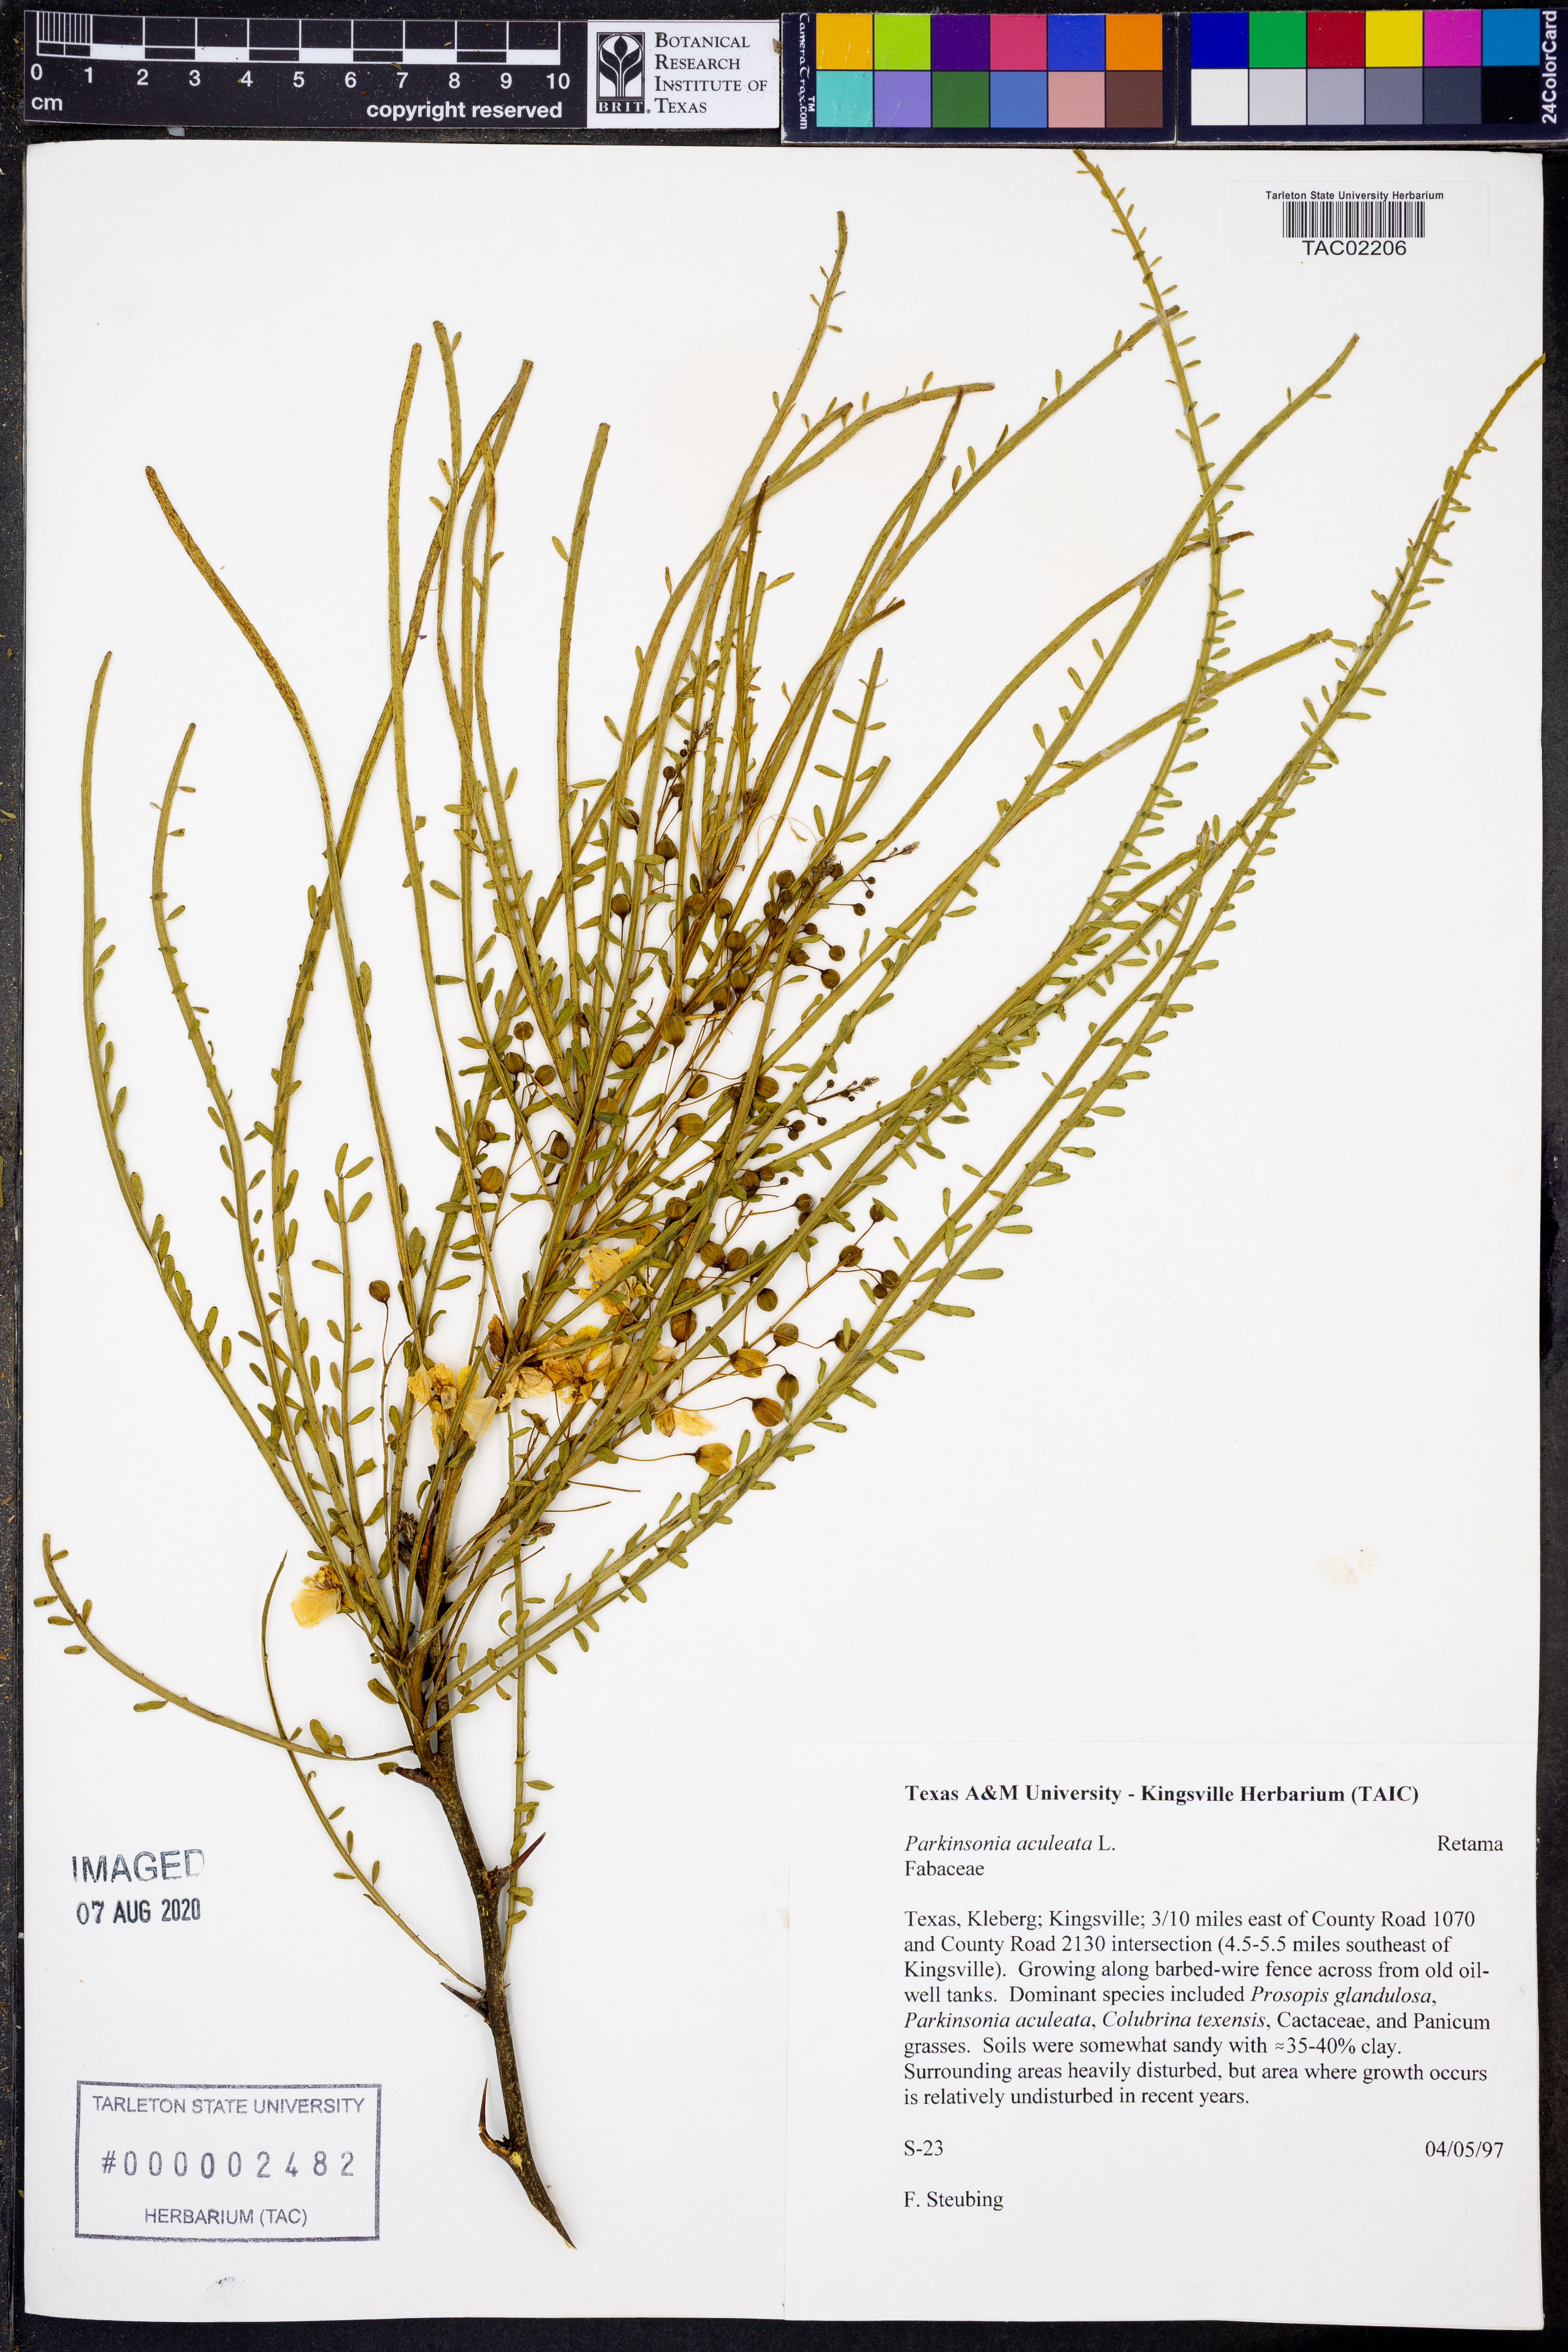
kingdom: Plantae
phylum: Tracheophyta
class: Magnoliopsida
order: Fabales
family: Fabaceae
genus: Parkinsonia
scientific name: Parkinsonia aculeata
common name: Jerusalem thorn
